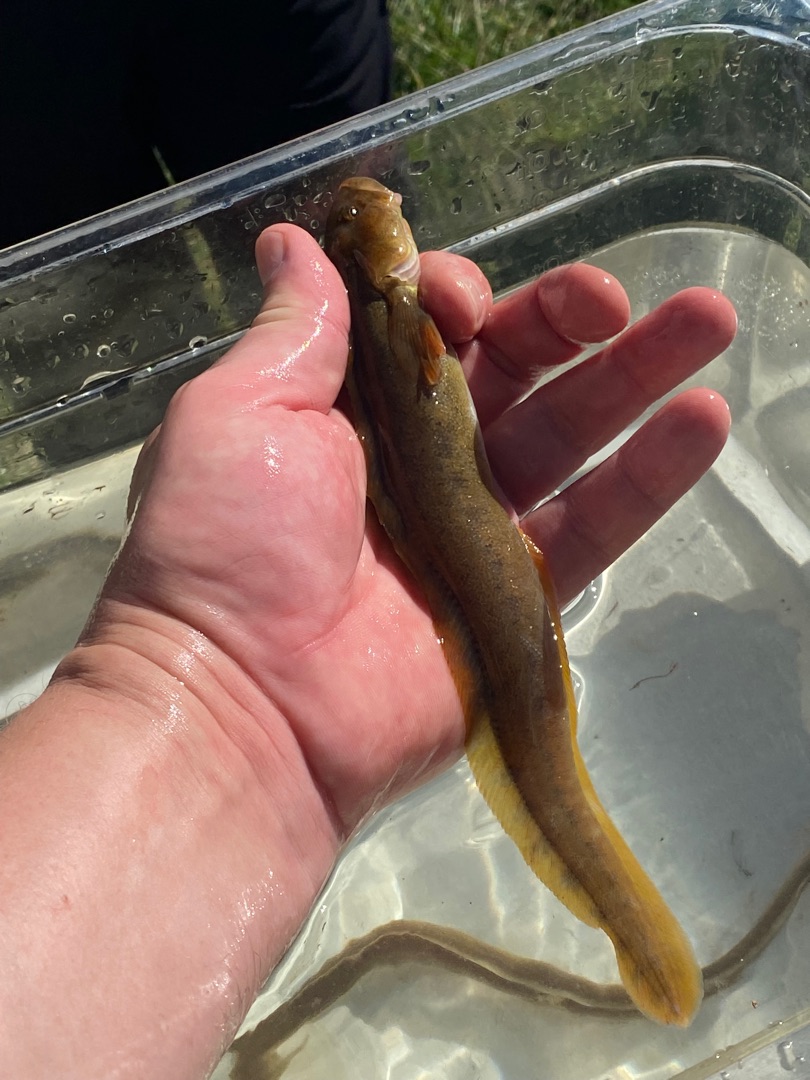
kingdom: Animalia
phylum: Chordata
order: Perciformes
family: Zoarcidae
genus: Zoarces
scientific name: Zoarces viviparus
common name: Ålekvabbe
